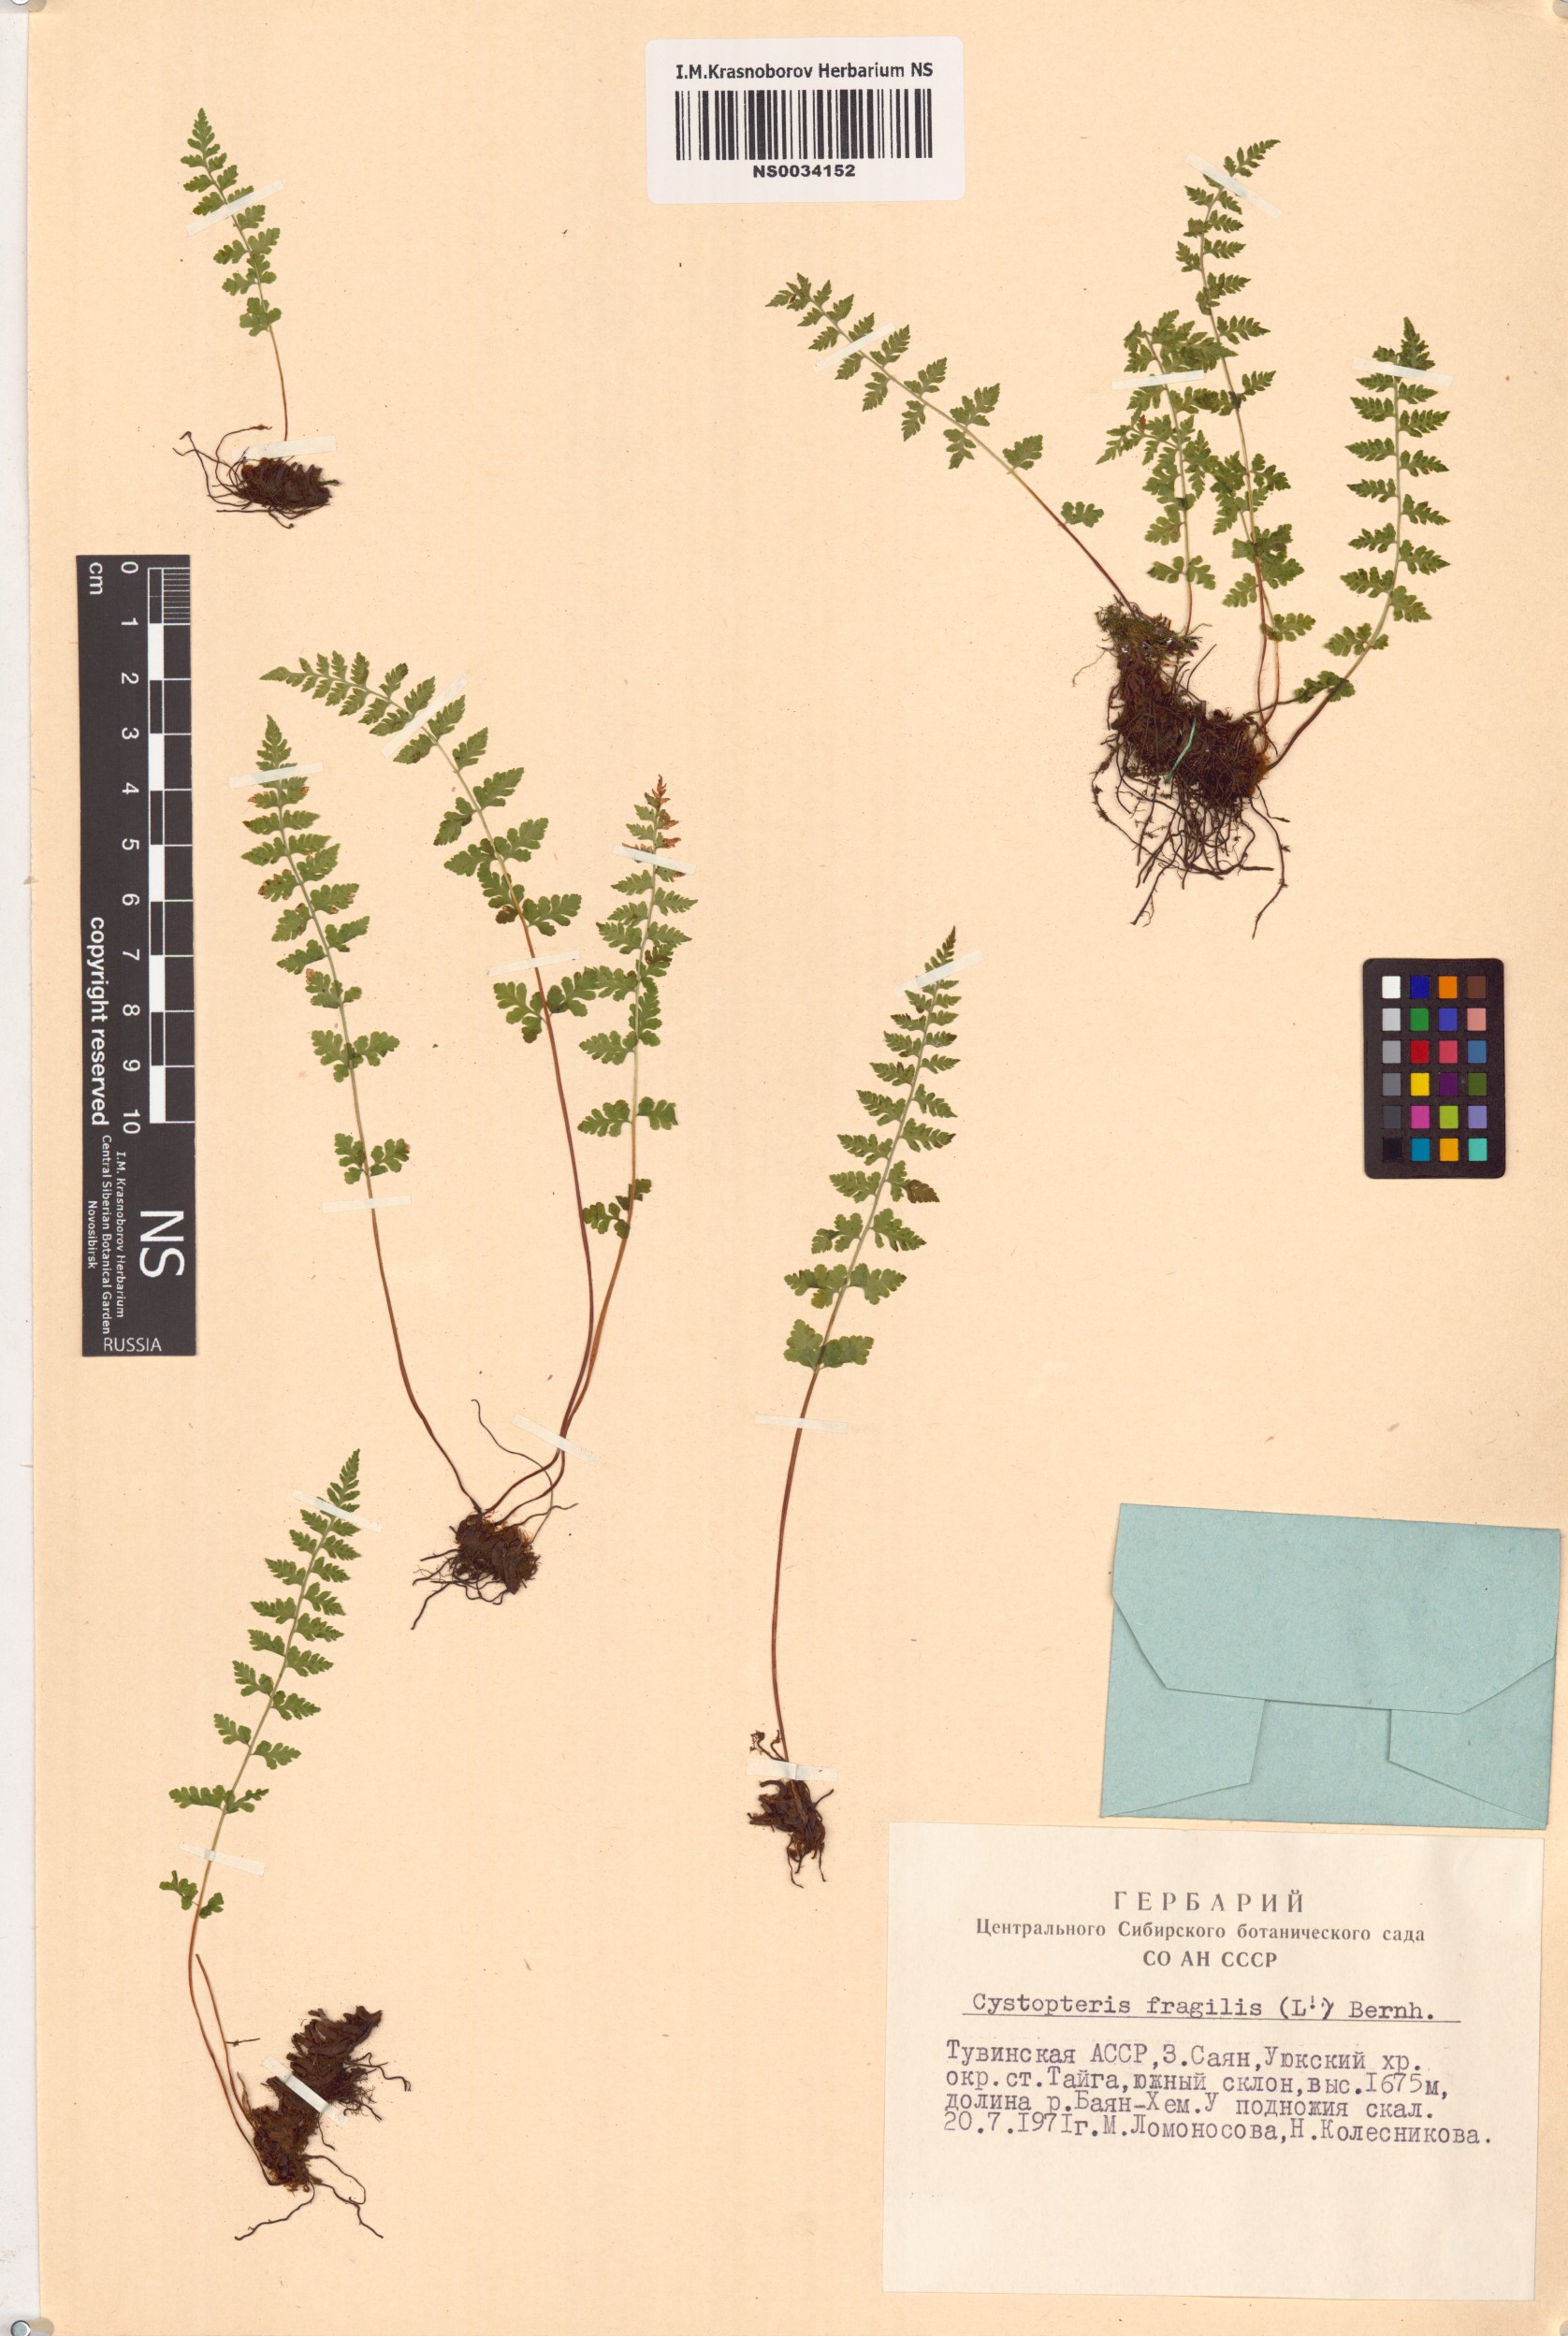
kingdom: Plantae
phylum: Tracheophyta
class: Polypodiopsida
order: Polypodiales
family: Cystopteridaceae
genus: Cystopteris
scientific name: Cystopteris fragilis
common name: Brittle bladder fern
